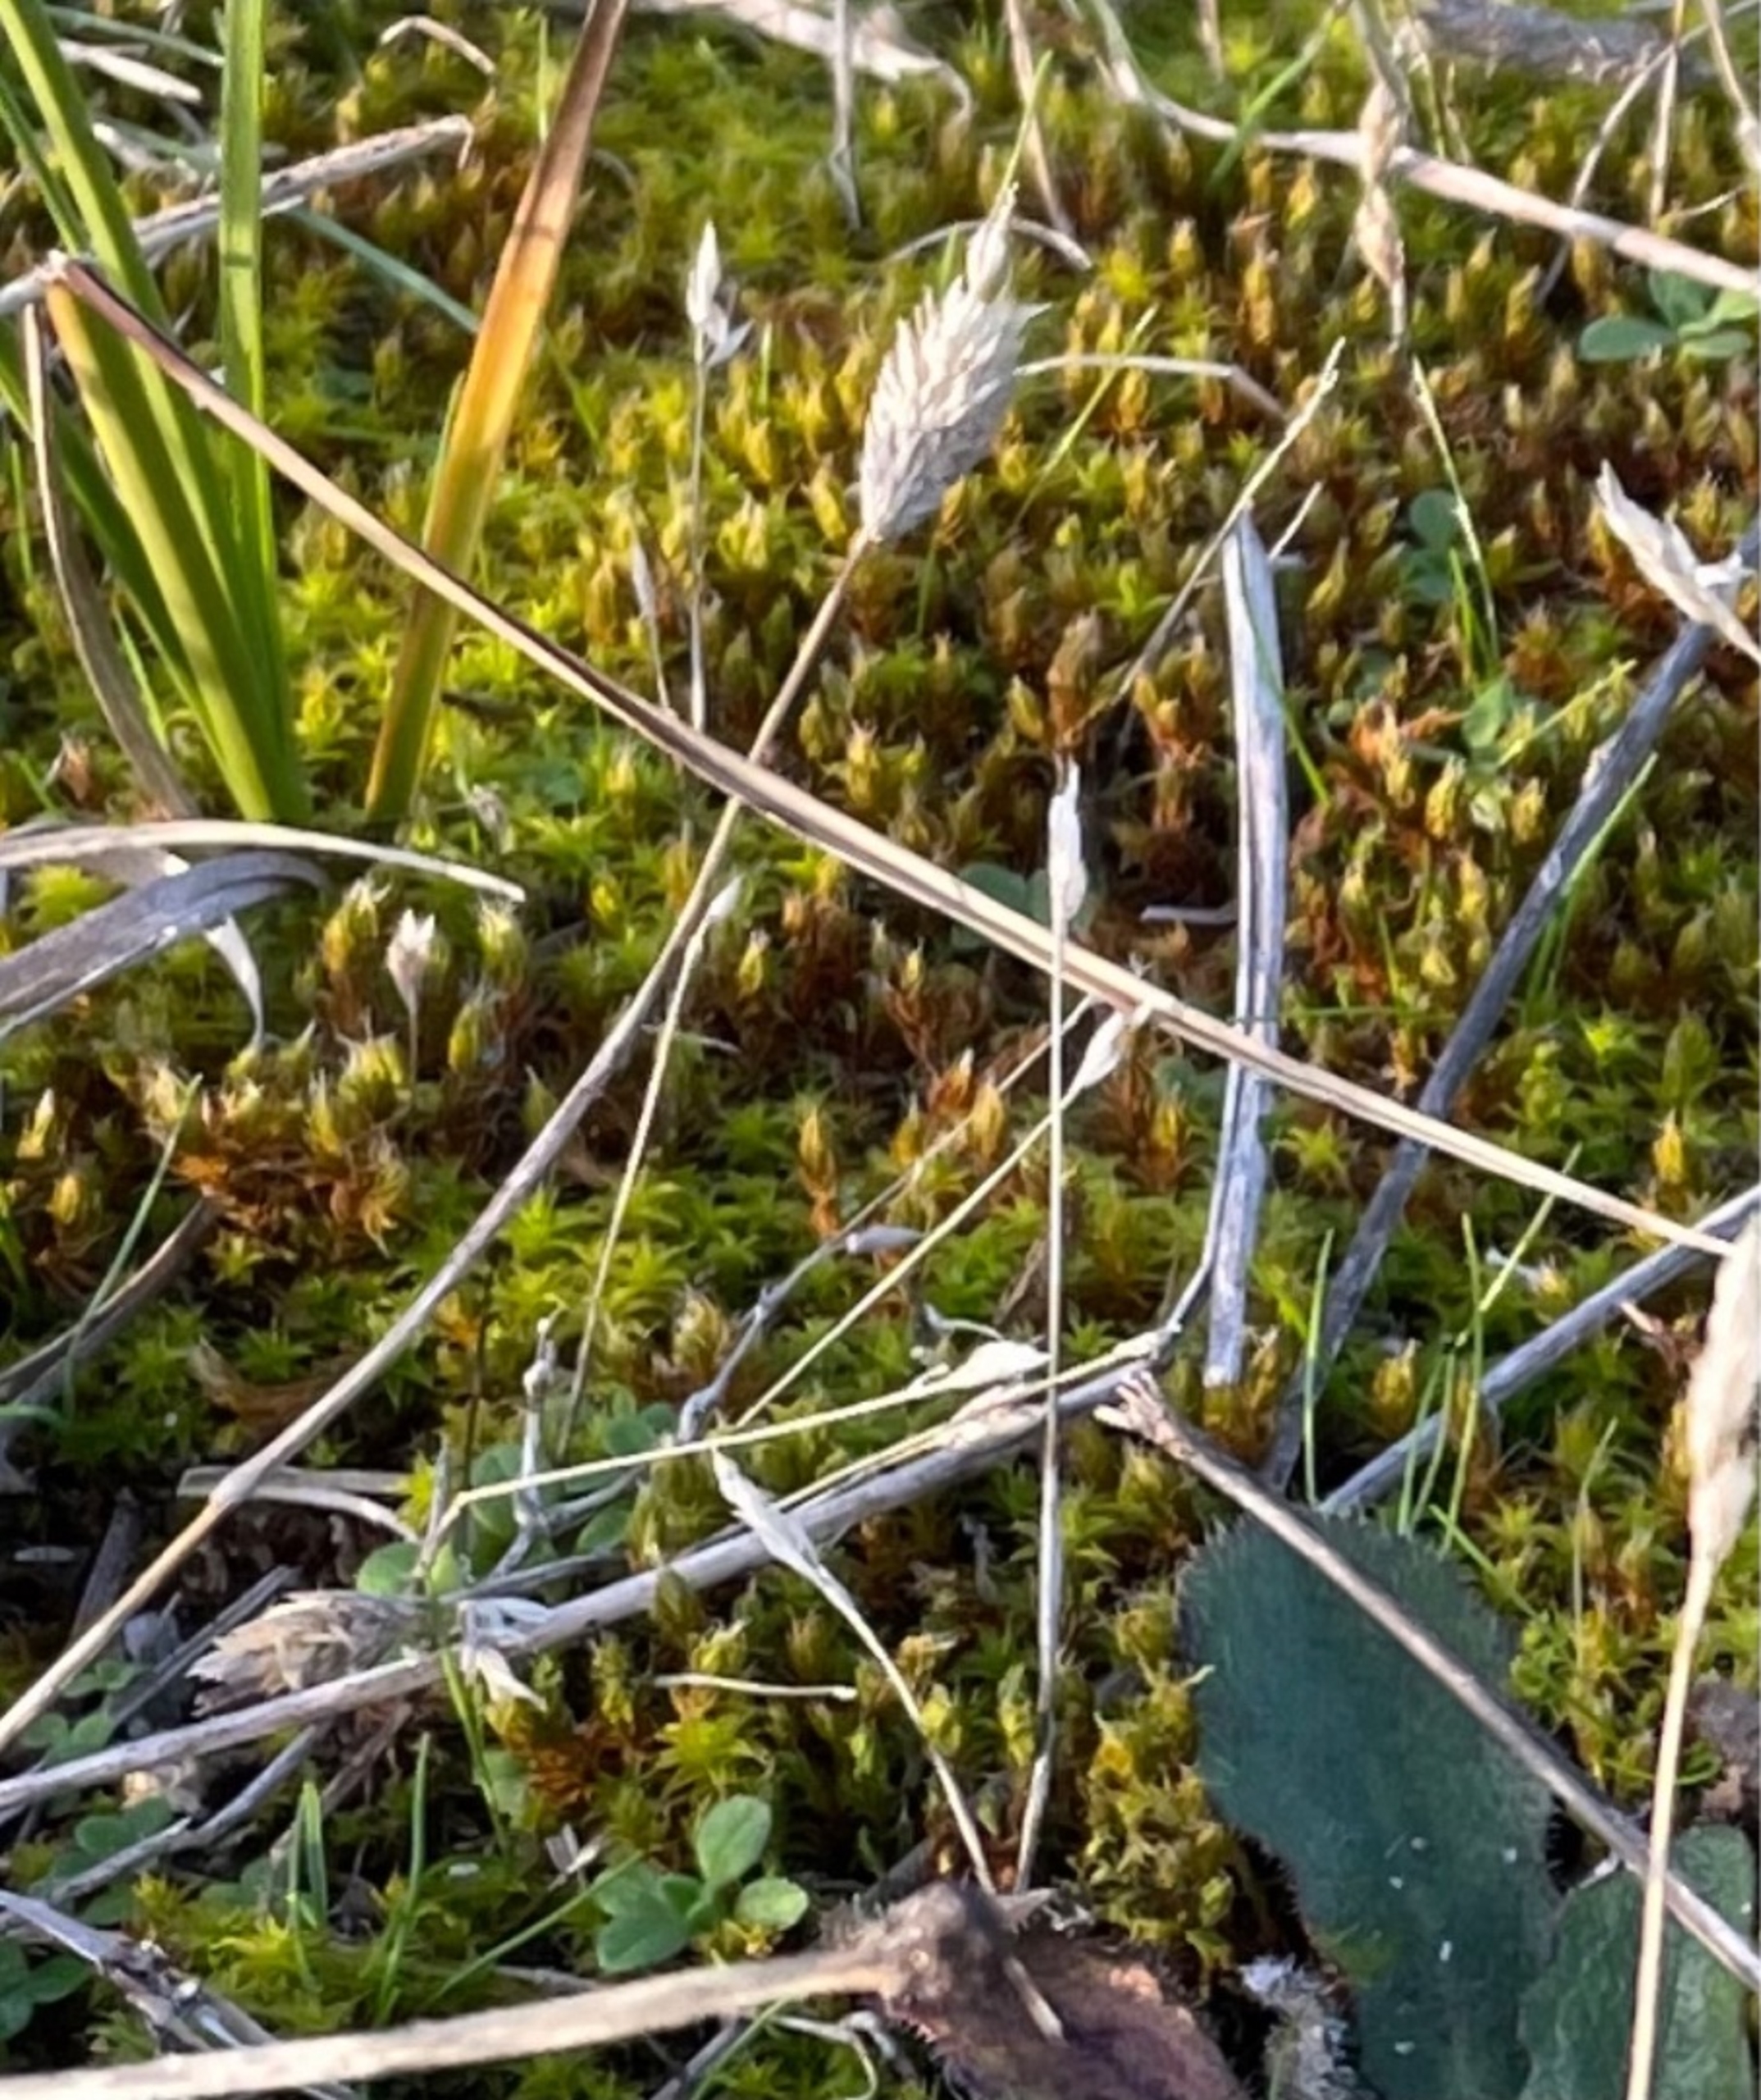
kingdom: Plantae
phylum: Tracheophyta
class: Liliopsida
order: Poales
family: Poaceae
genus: Phleum
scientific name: Phleum arenarium
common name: Sand-rottehale
